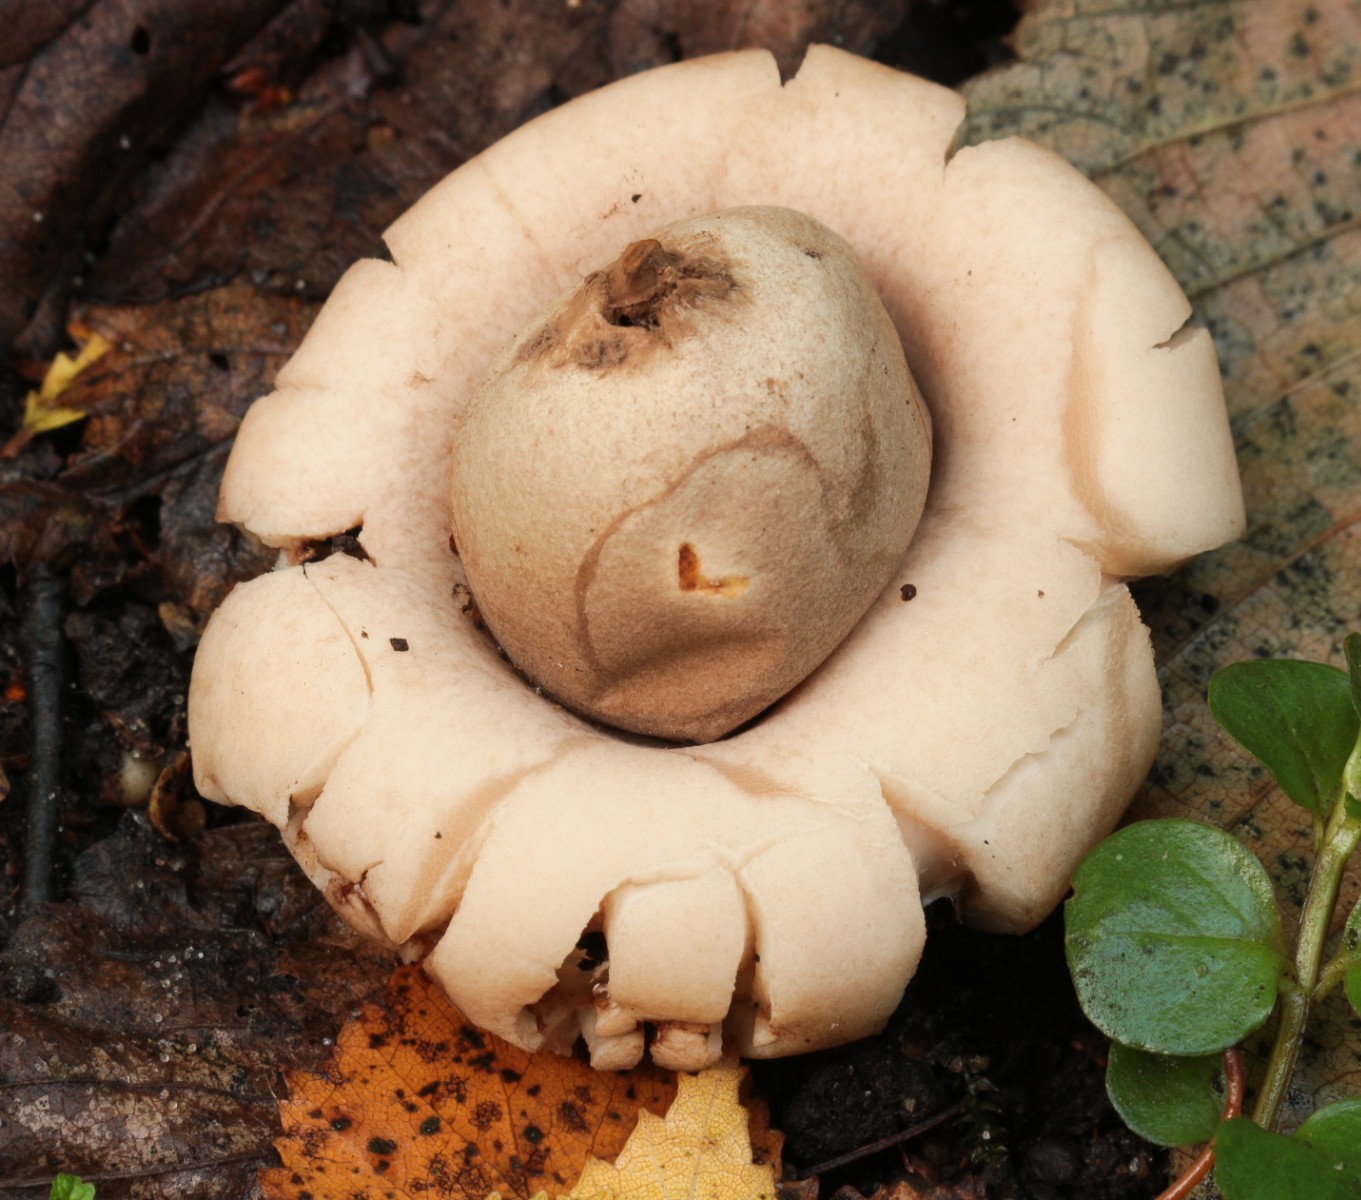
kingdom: Fungi
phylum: Basidiomycota
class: Agaricomycetes
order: Geastrales
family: Geastraceae
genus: Geastrum
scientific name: Geastrum fimbriatum
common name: frynset stjernebold
